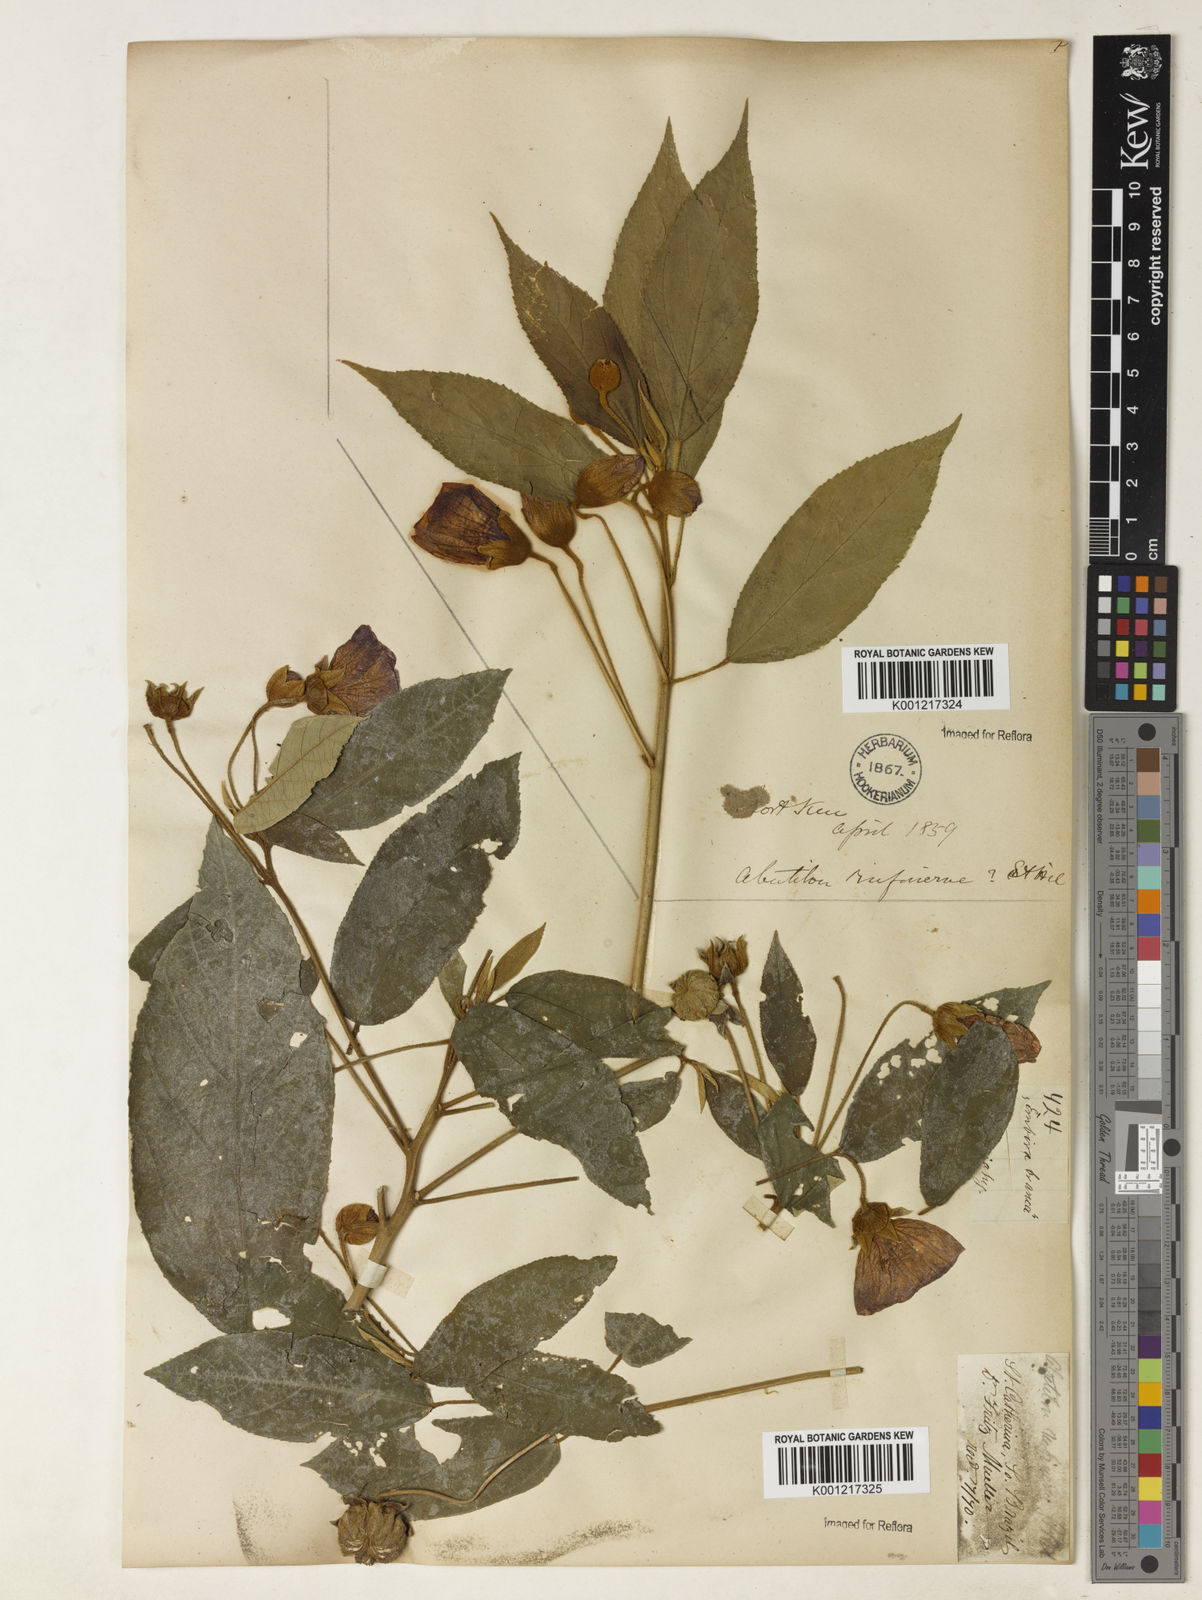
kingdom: Plantae
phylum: Tracheophyta
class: Magnoliopsida
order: Malvales
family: Malvaceae
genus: Callianthe
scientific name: Callianthe rufinerva
